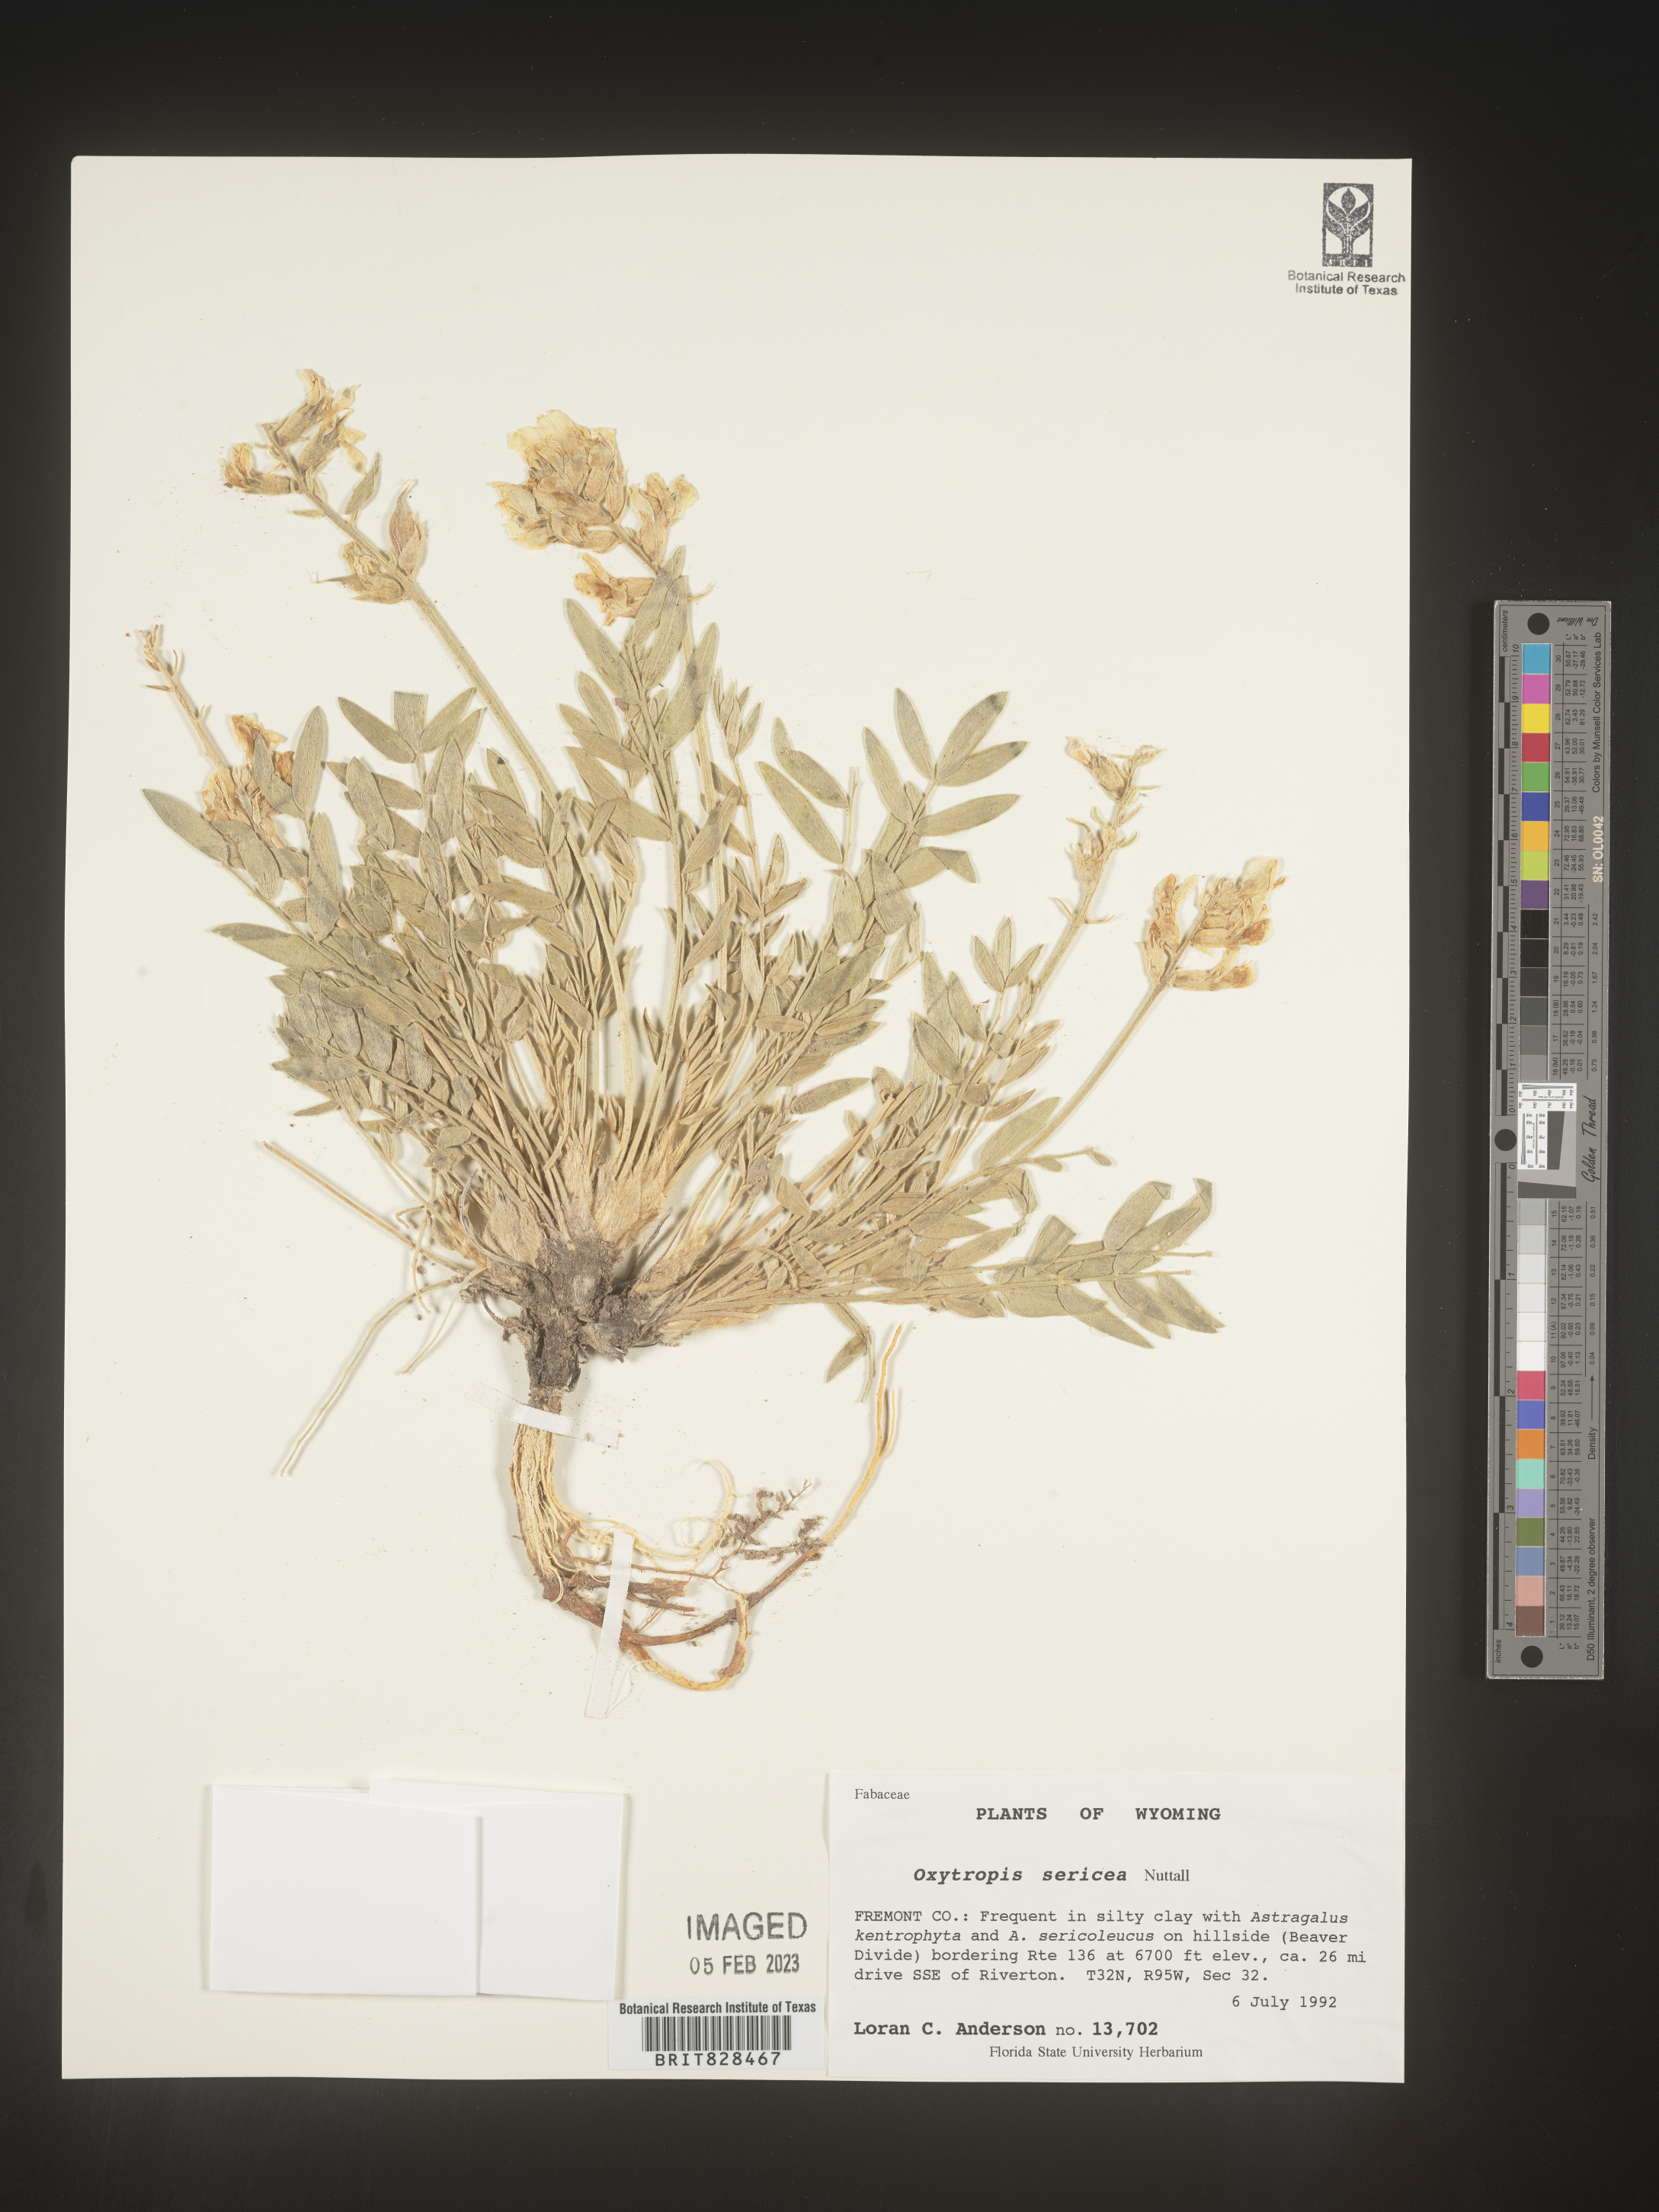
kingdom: Plantae
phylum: Tracheophyta
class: Magnoliopsida
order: Fabales
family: Fabaceae
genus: Oxytropis
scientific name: Oxytropis sericea
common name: Silky locoweed
